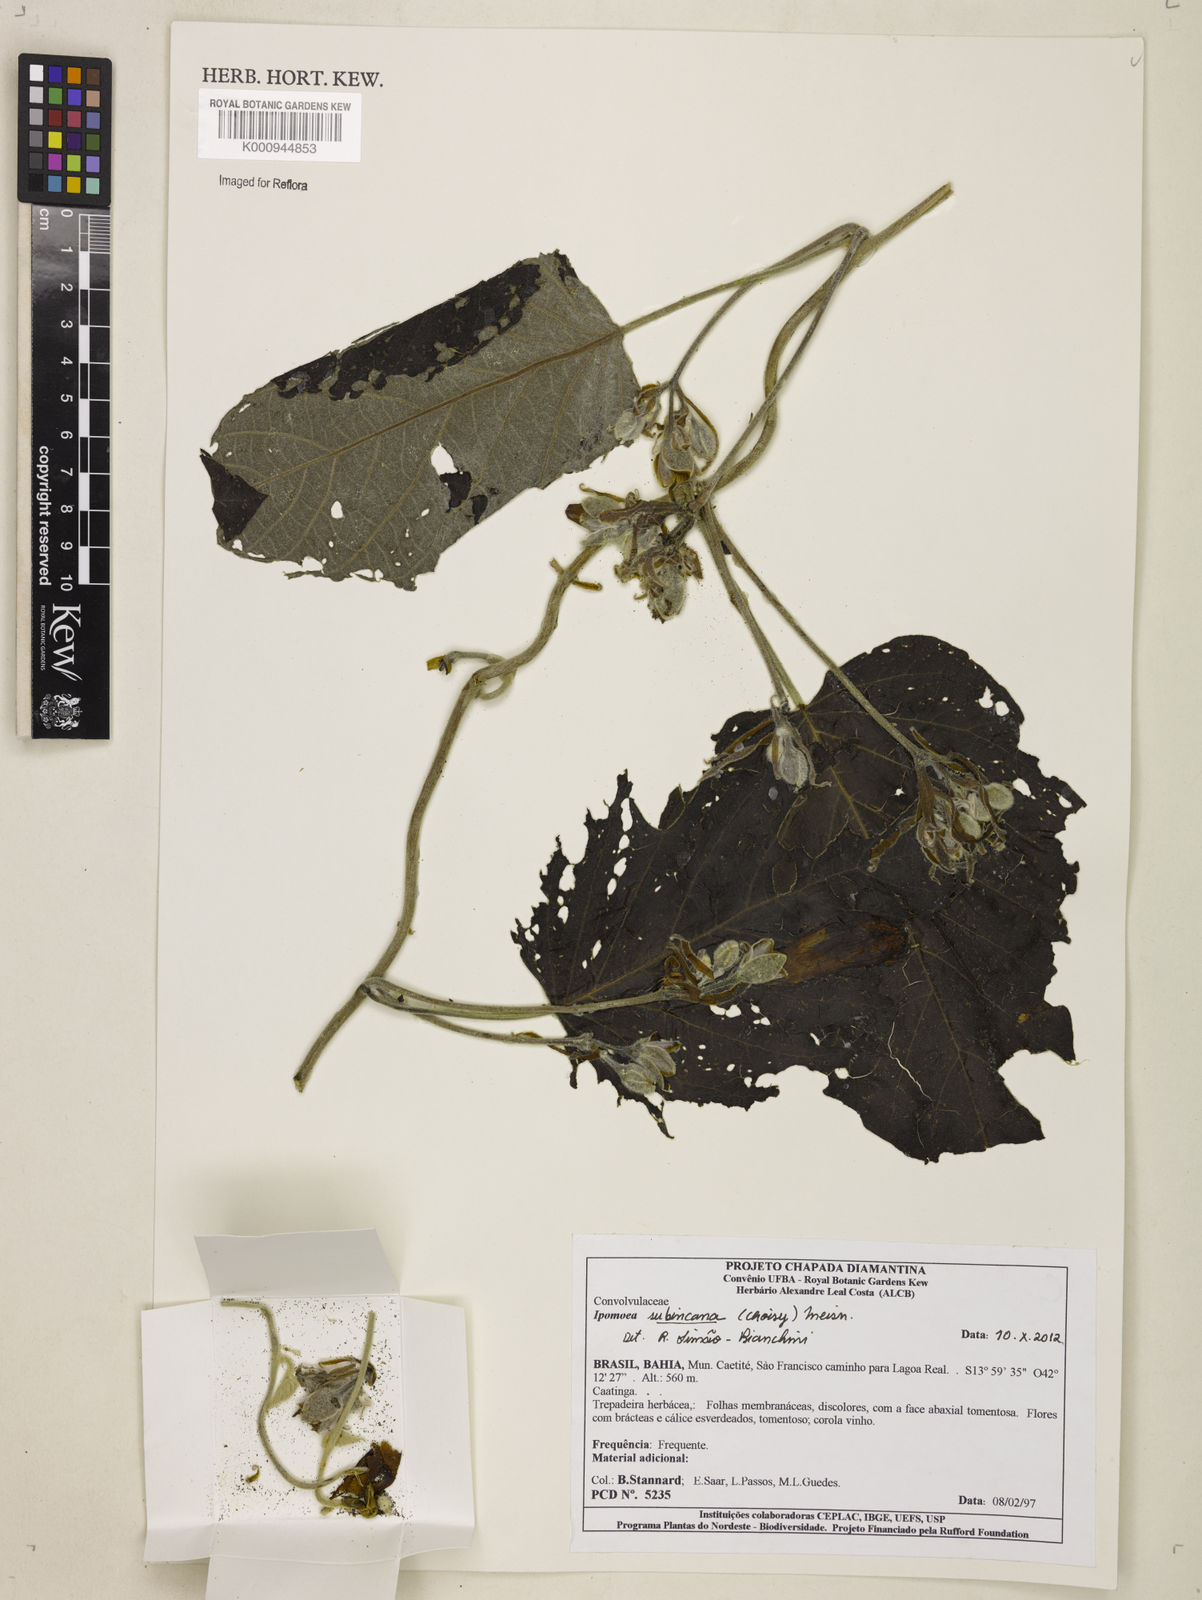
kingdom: Plantae
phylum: Tracheophyta
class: Magnoliopsida
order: Solanales
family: Convolvulaceae
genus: Ipomoea
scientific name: Ipomoea brasiliana
